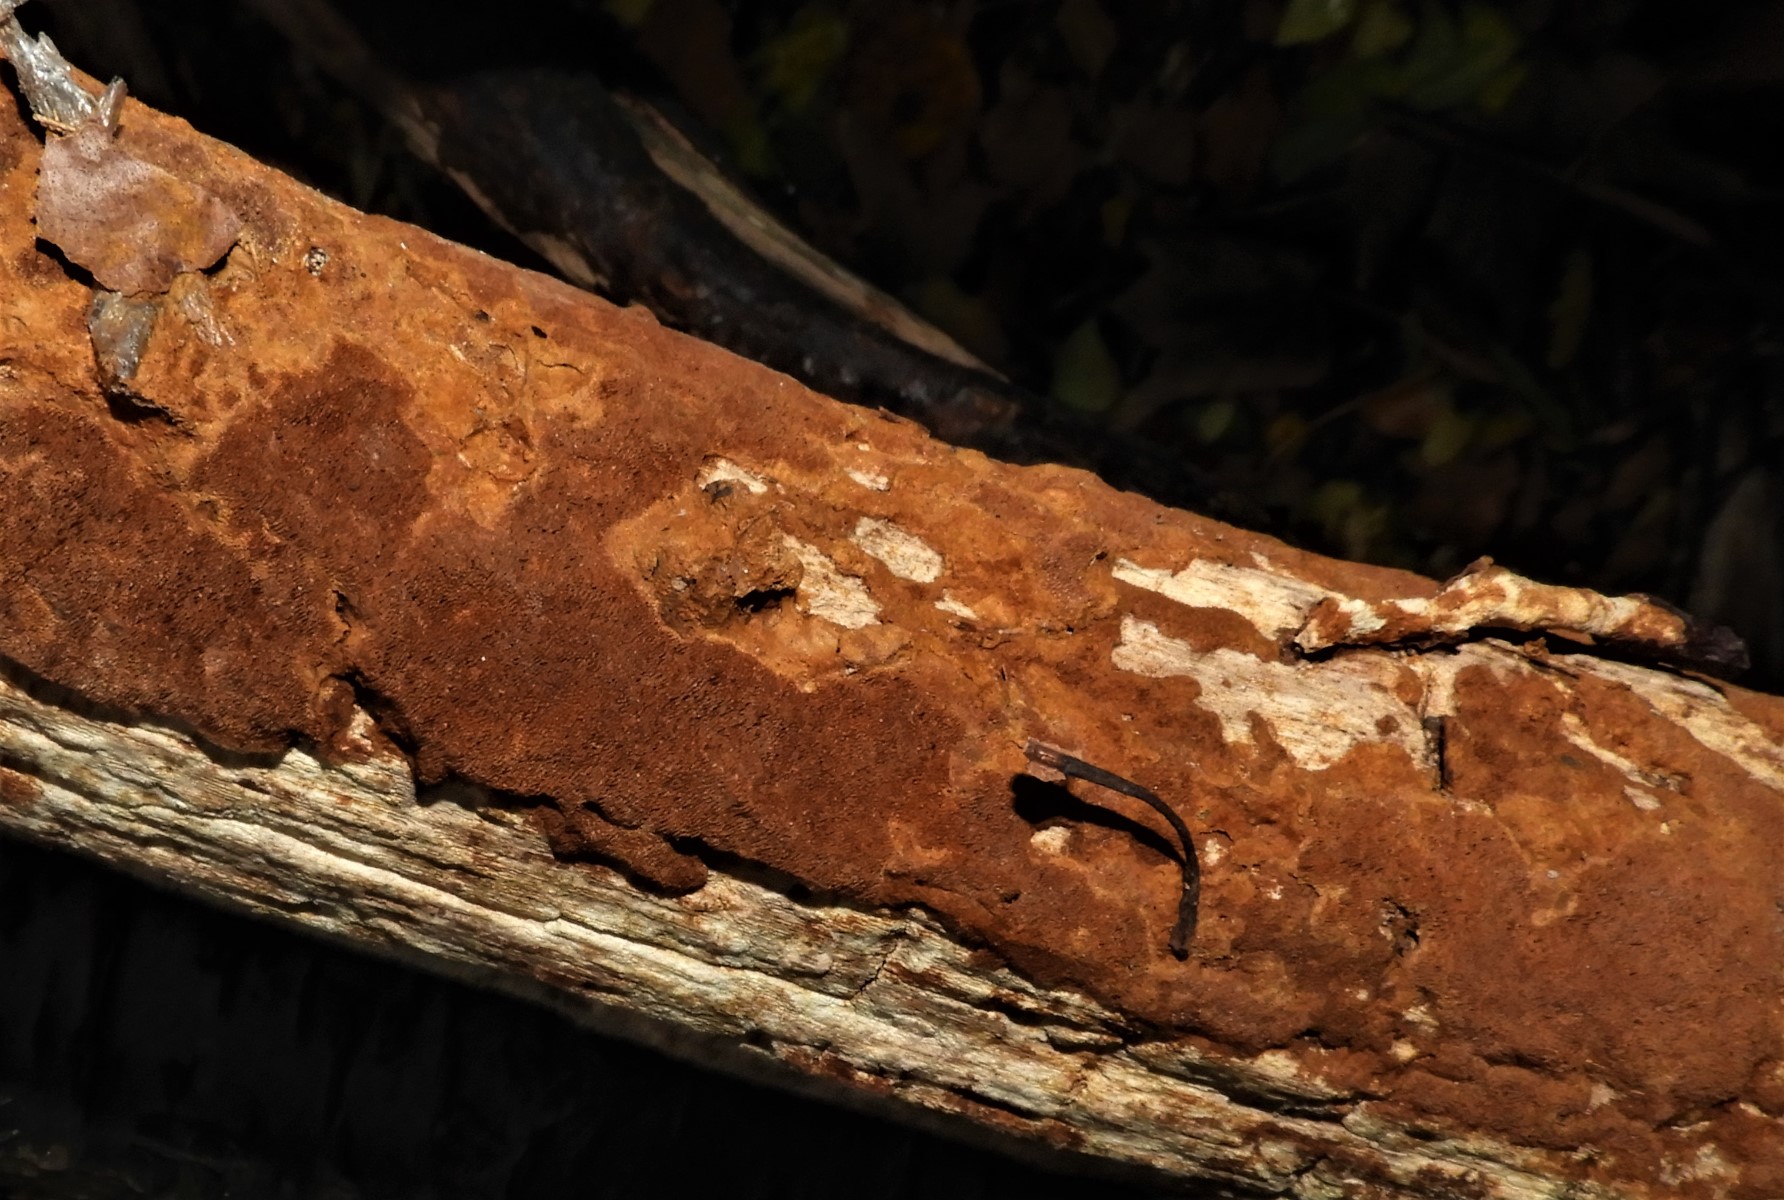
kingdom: Fungi
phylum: Basidiomycota
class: Agaricomycetes
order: Hymenochaetales
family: Hymenochaetaceae
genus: Fuscoporia
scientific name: Fuscoporia ferrea
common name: skorpe-ildporesvamp
